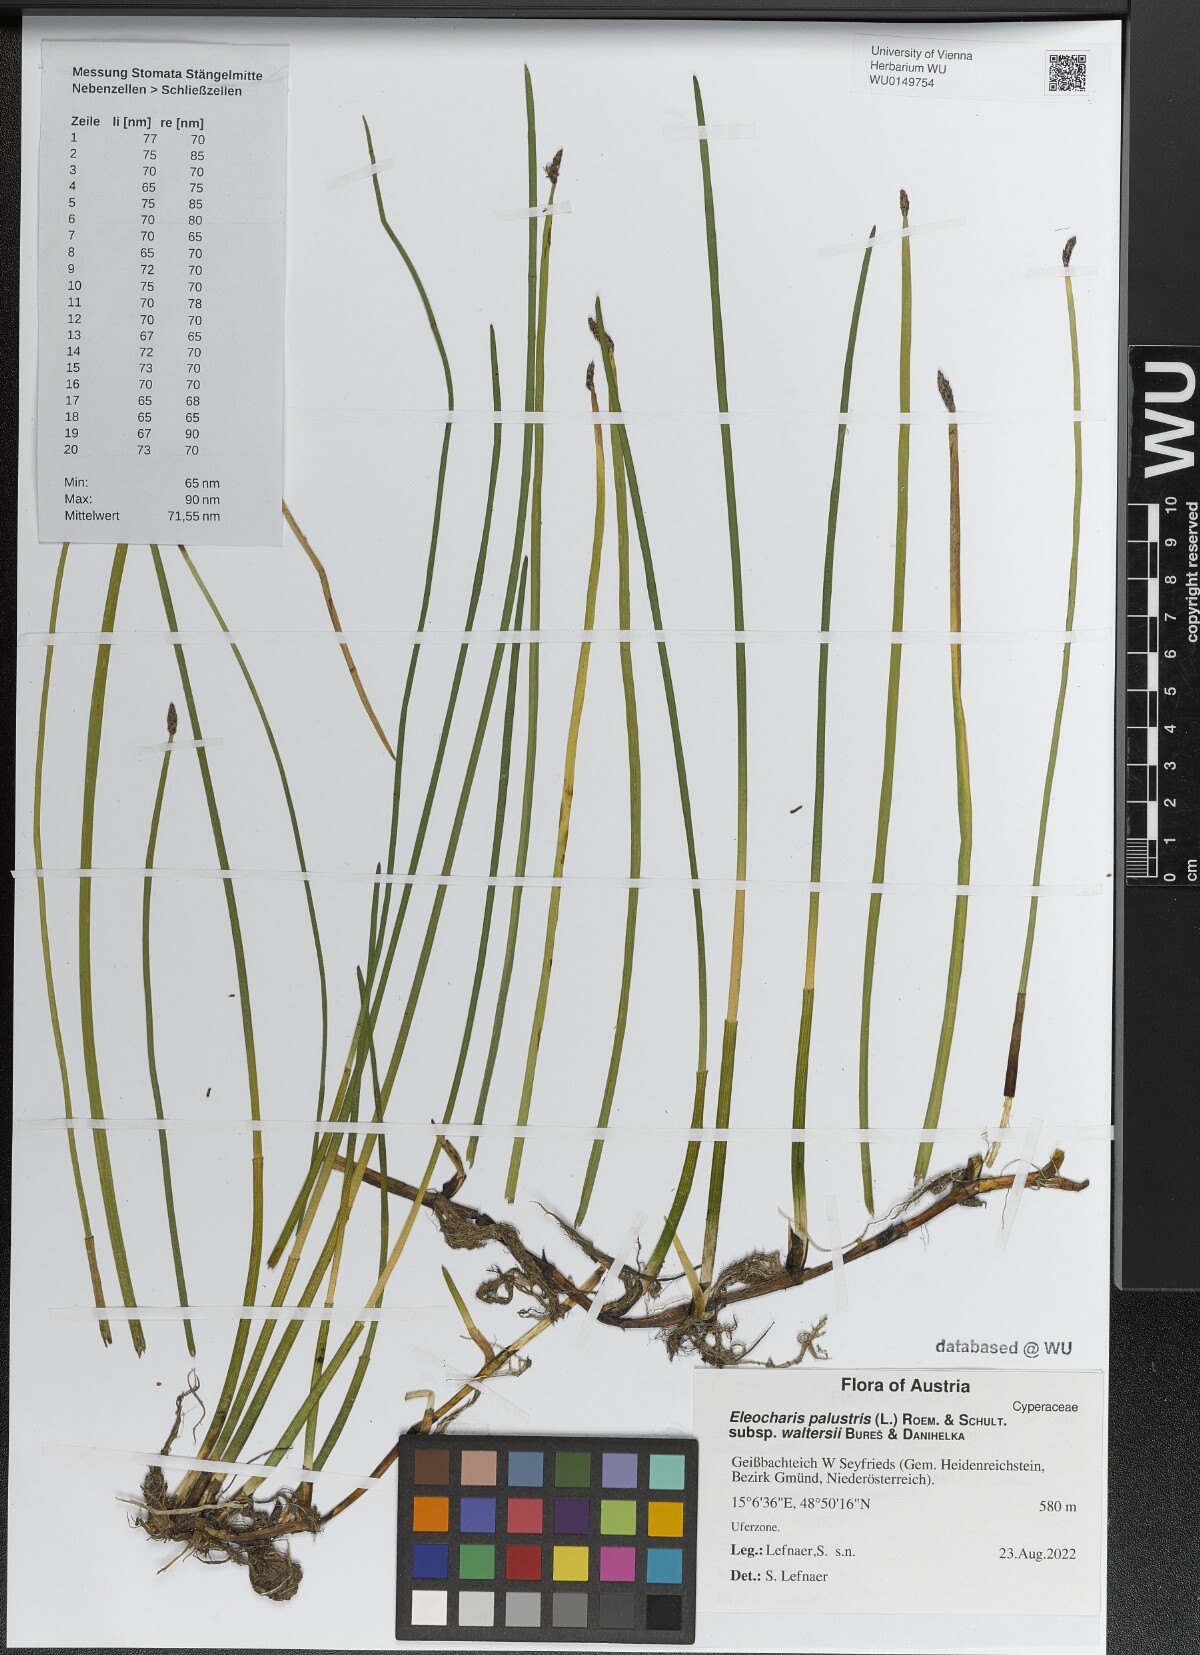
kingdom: Plantae
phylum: Tracheophyta
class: Liliopsida
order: Poales
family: Cyperaceae
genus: Eleocharis
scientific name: Eleocharis palustris
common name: Common spike-rush
